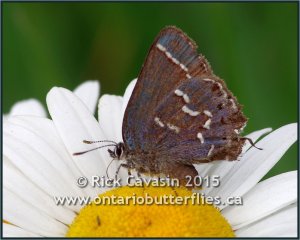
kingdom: Animalia
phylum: Arthropoda
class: Insecta
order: Lepidoptera
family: Lycaenidae
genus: Mitoura
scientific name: Mitoura gryneus
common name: Juniper Hairstreak
